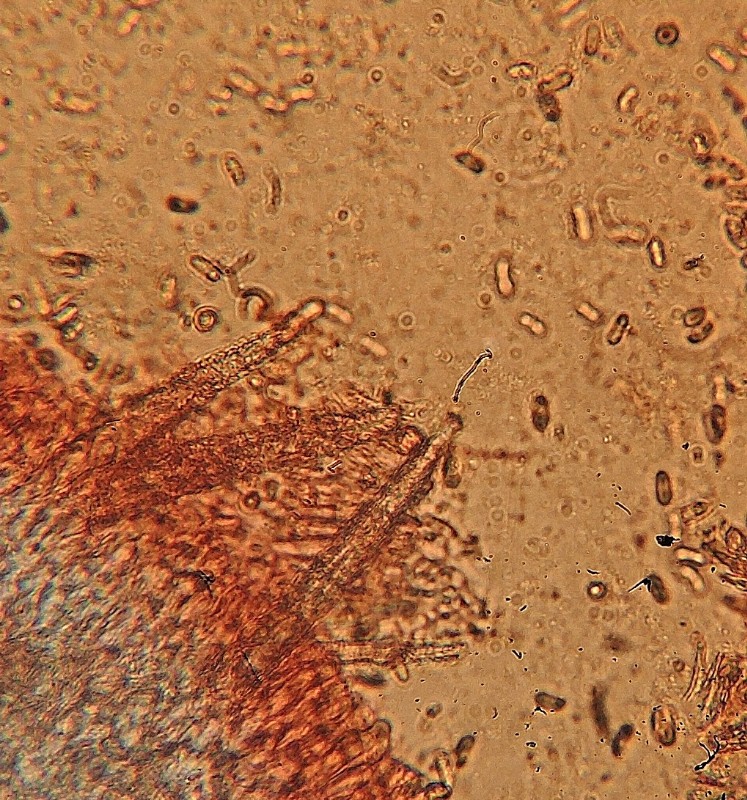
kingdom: Fungi
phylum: Basidiomycota
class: Agaricomycetes
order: Polyporales
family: Meruliaceae
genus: Scopuloides
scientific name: Scopuloides rimosa
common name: dughinde
